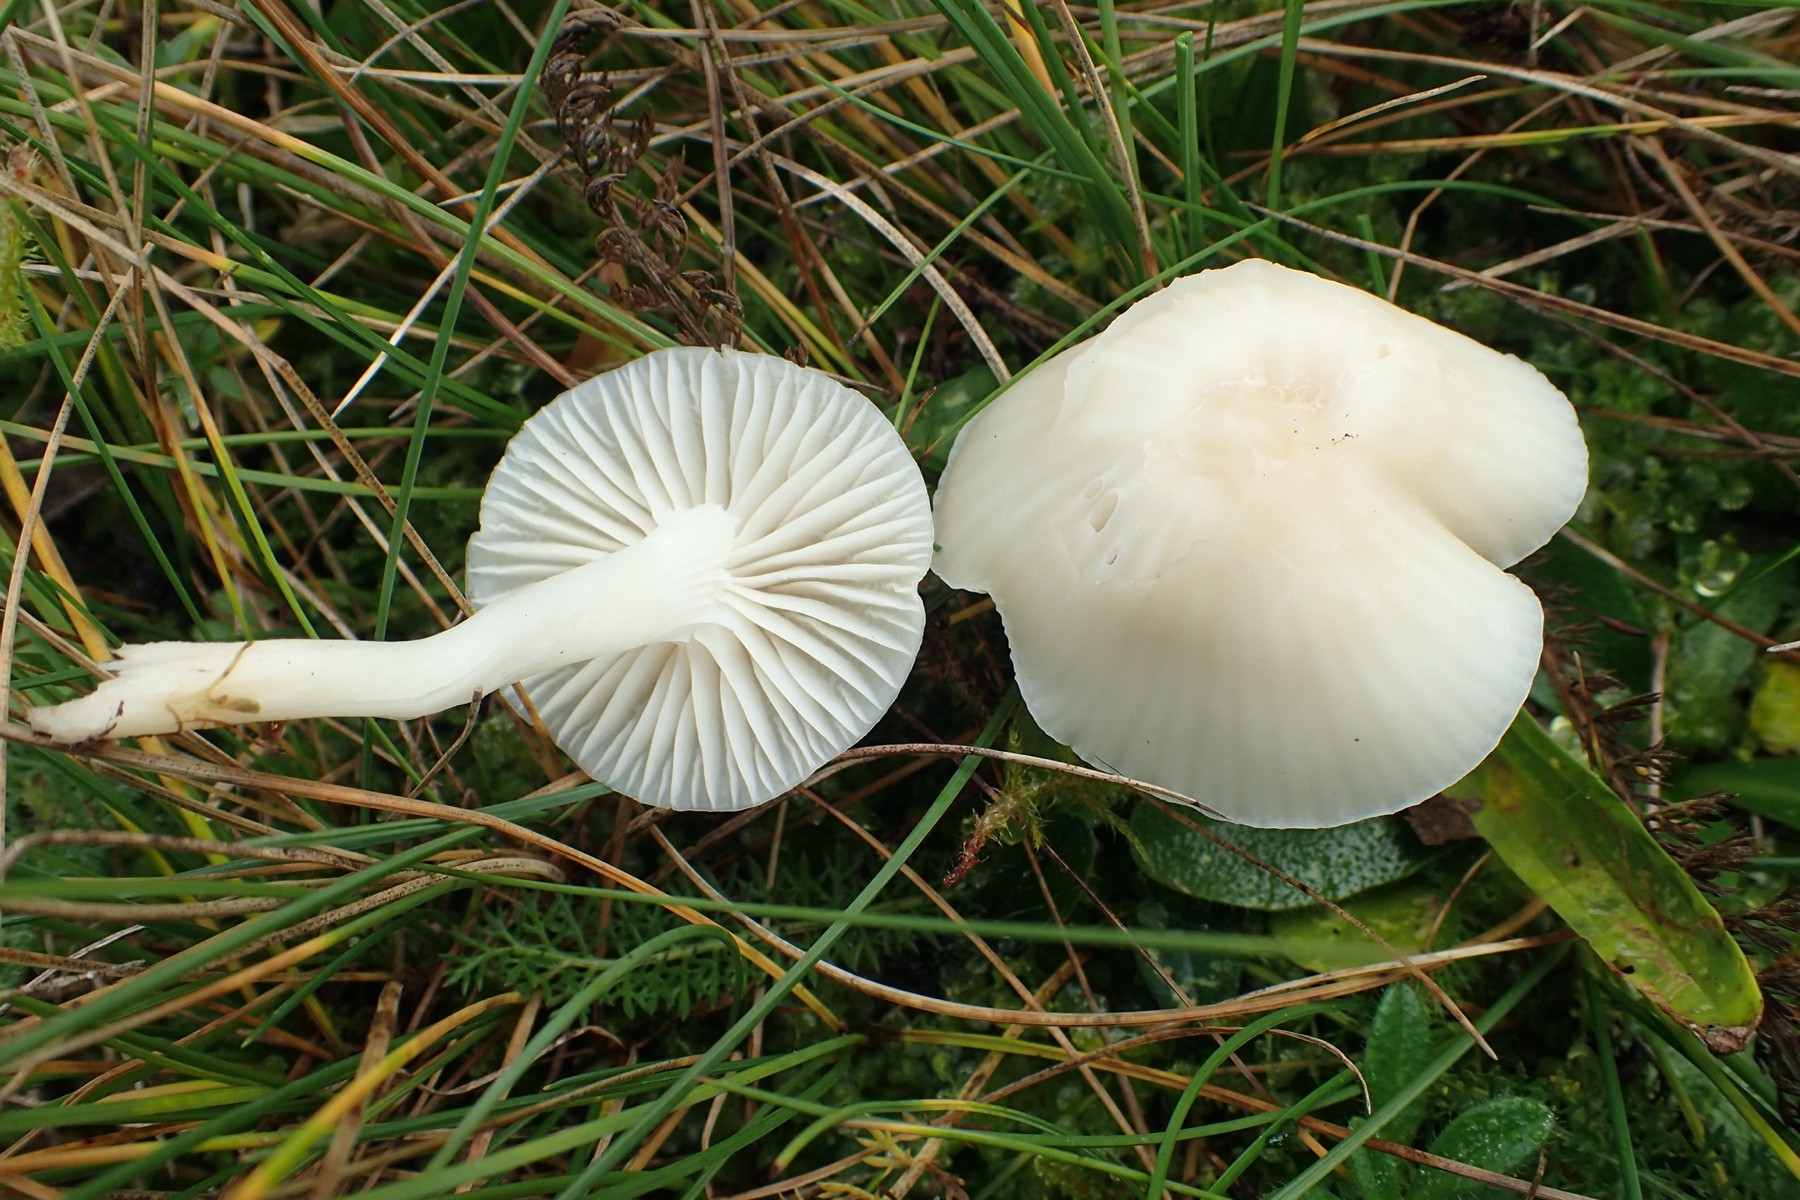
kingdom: Fungi
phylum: Basidiomycota
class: Agaricomycetes
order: Agaricales
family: Hygrophoraceae
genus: Cuphophyllus
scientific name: Cuphophyllus virgineus
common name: snehvid vokshat
